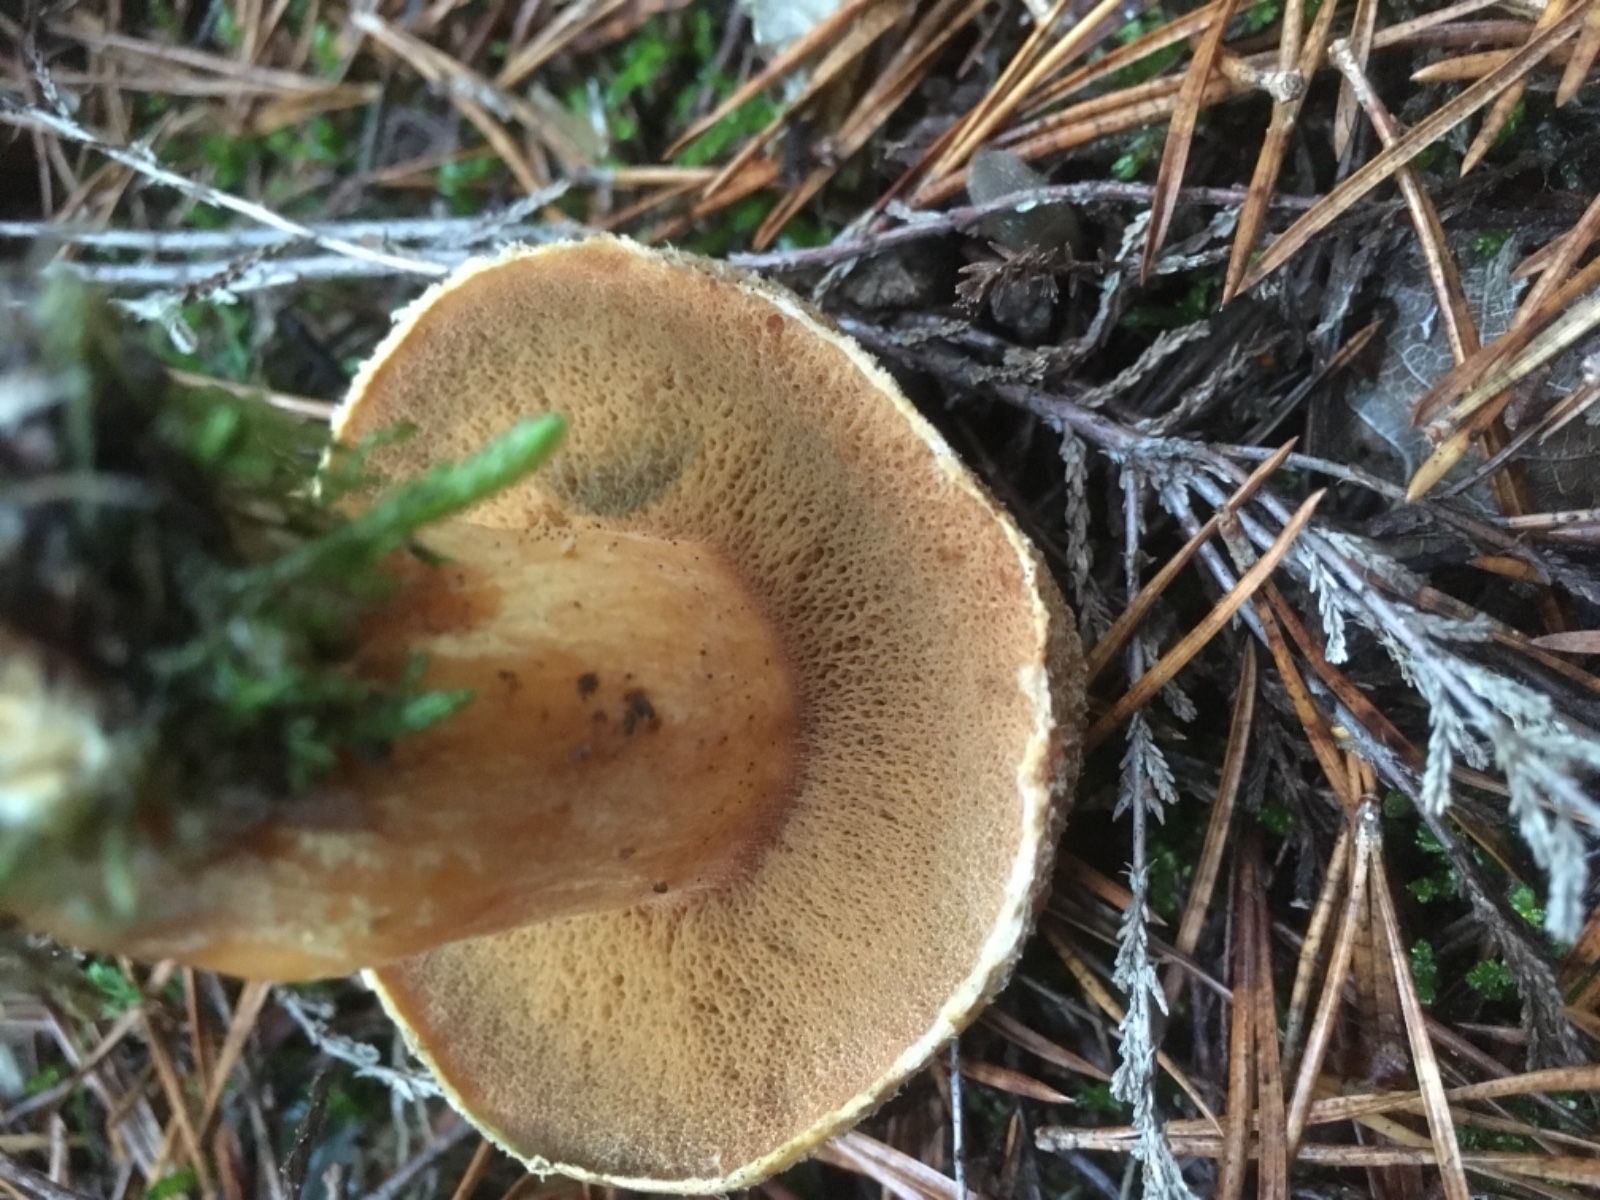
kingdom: Fungi
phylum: Basidiomycota
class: Agaricomycetes
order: Boletales
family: Suillaceae
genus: Suillus
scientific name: Suillus variegatus
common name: broget slimrørhat
